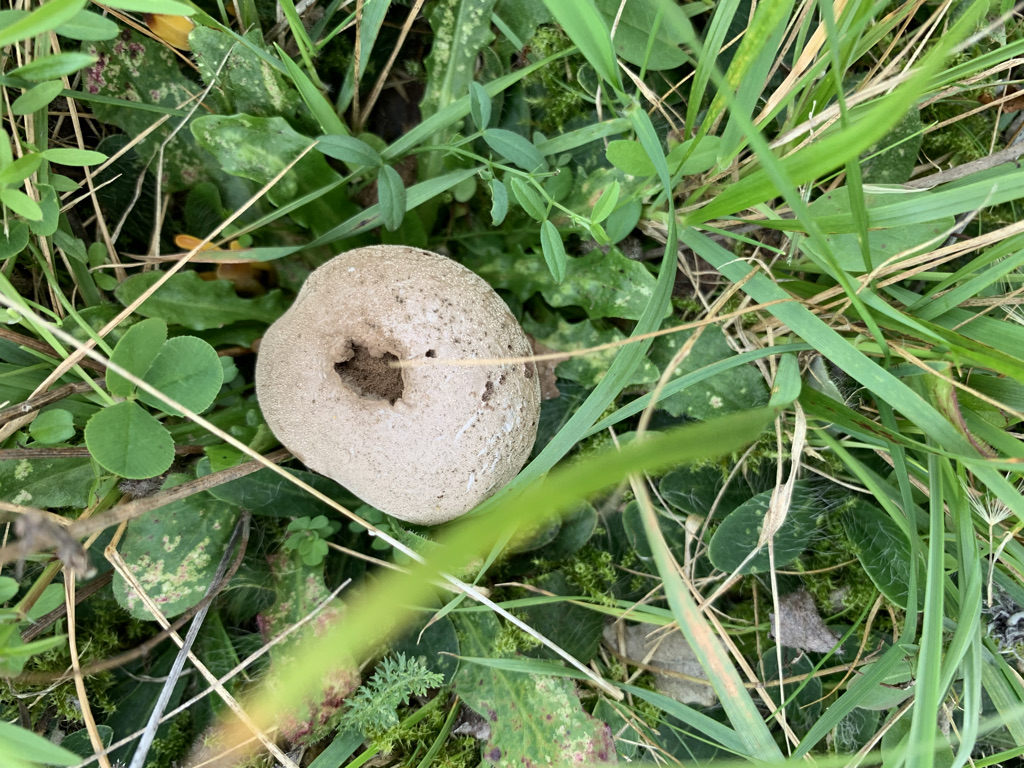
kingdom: Fungi
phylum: Basidiomycota
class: Agaricomycetes
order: Agaricales
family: Lycoperdaceae
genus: Lycoperdon
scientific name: Lycoperdon pratense
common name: flad støvbold
